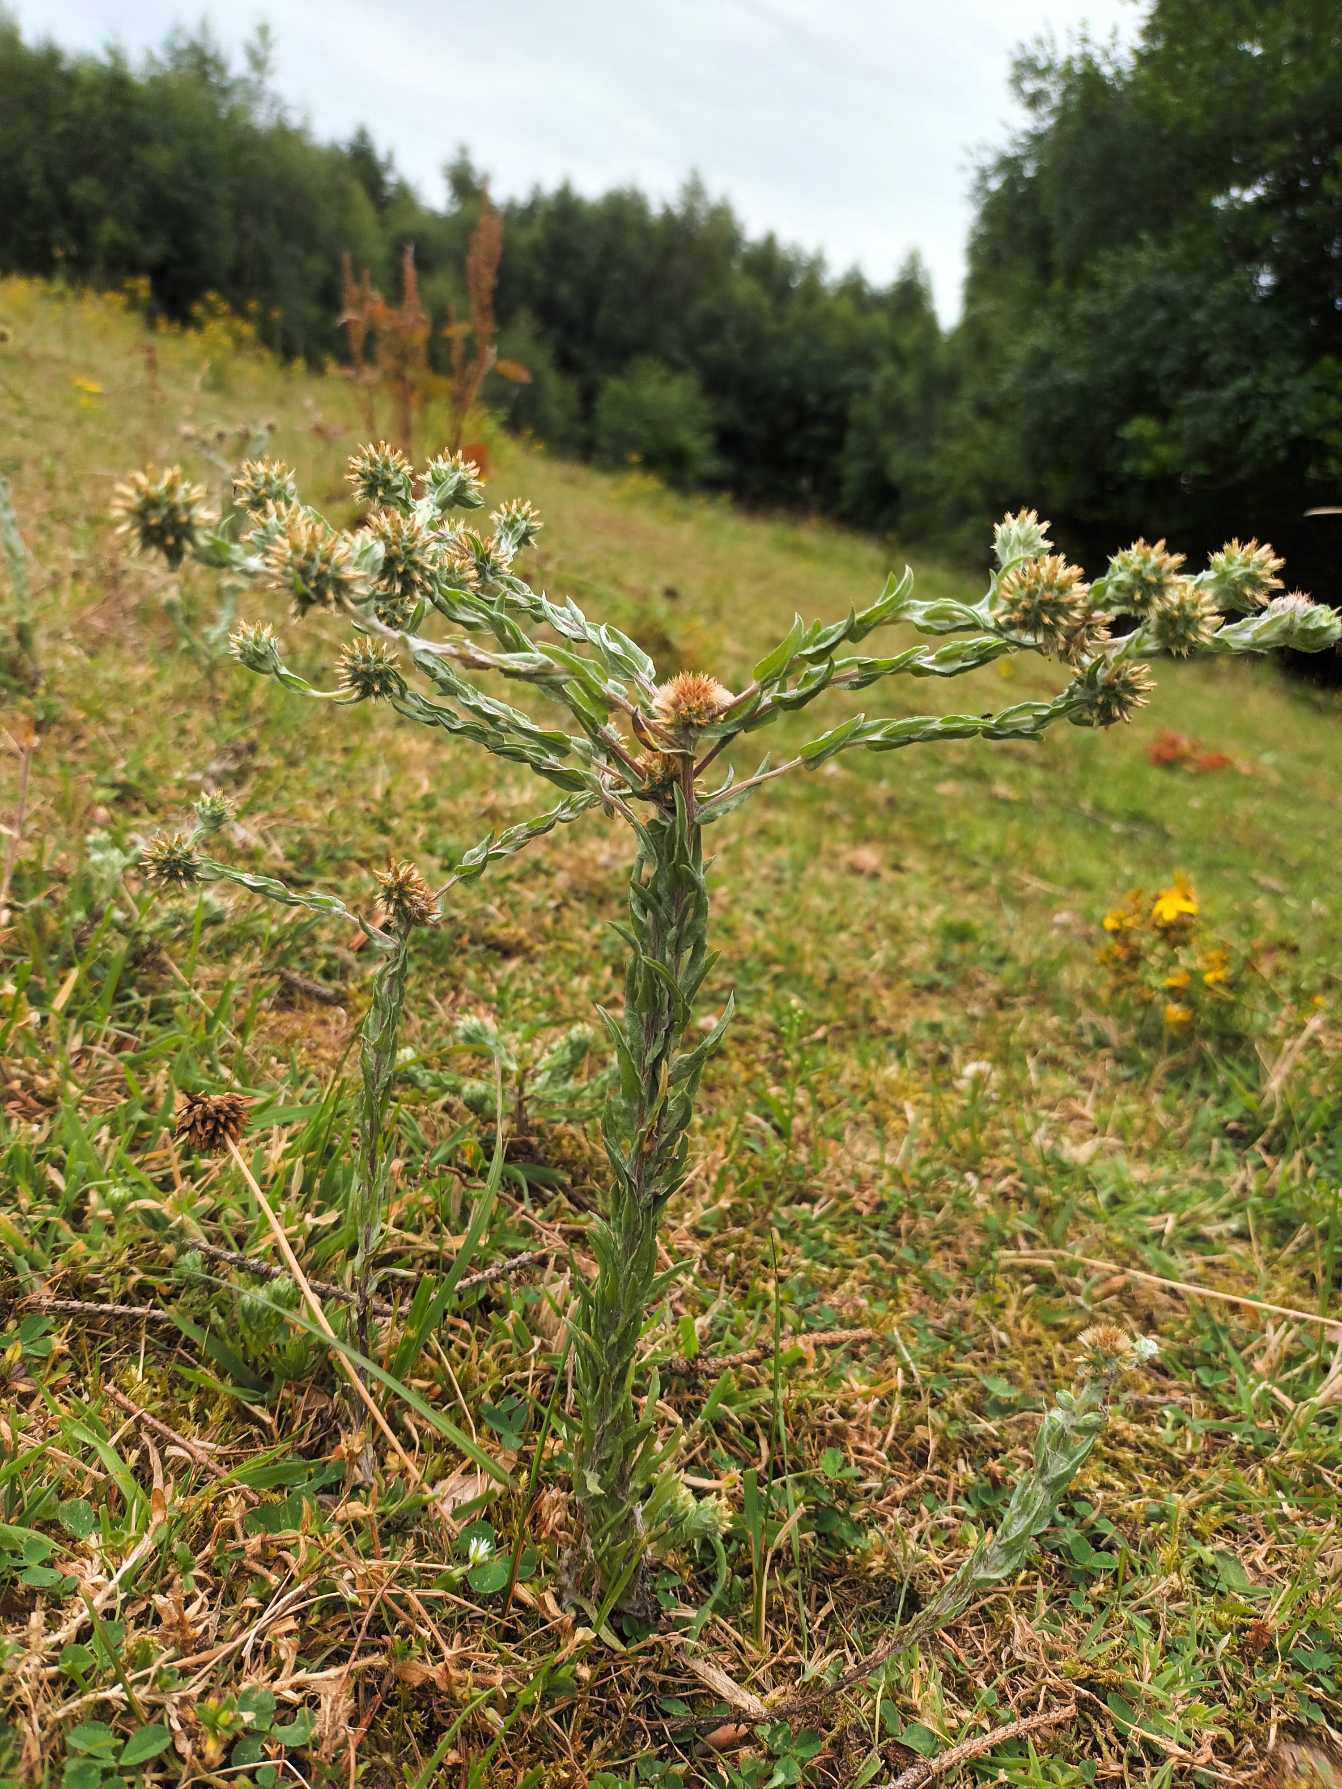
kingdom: Plantae
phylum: Tracheophyta
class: Magnoliopsida
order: Asterales
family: Asteraceae
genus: Filago
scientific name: Filago germanica
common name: Kugle-museurt
